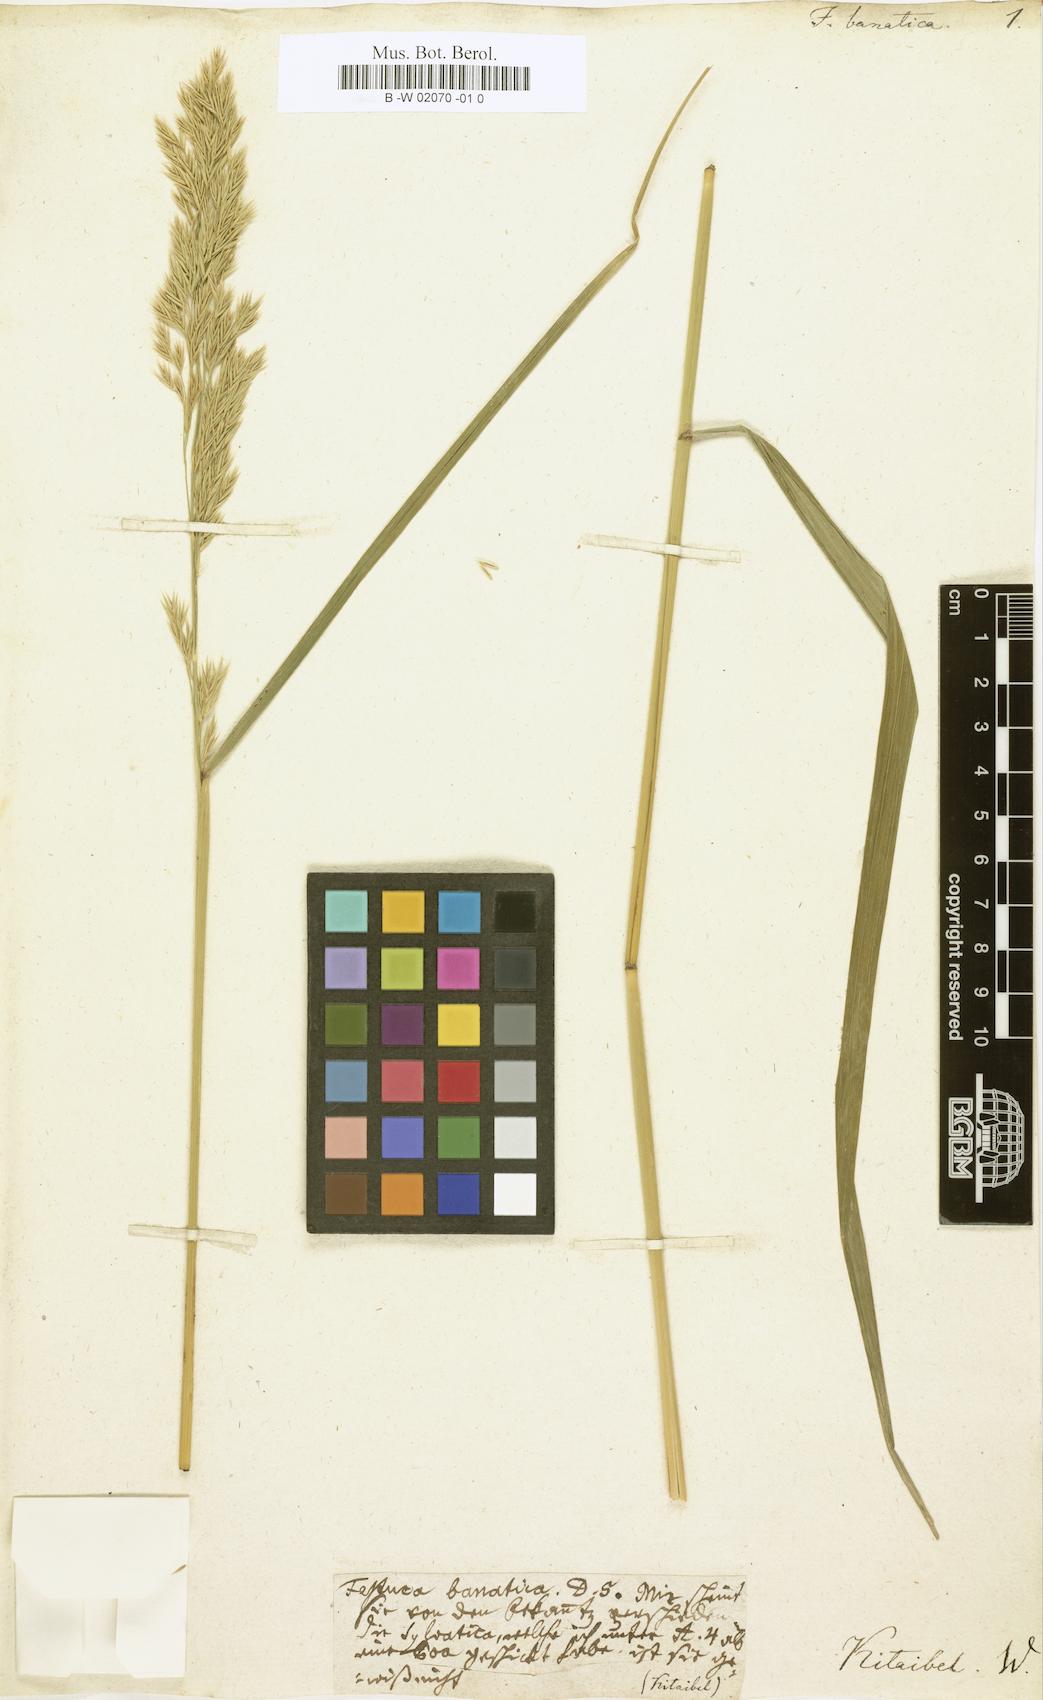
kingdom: Plantae
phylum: Tracheophyta
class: Liliopsida
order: Poales
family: Poaceae
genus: Festuca
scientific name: Festuca filiformis
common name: Fine-leaved sheep's-fescue
